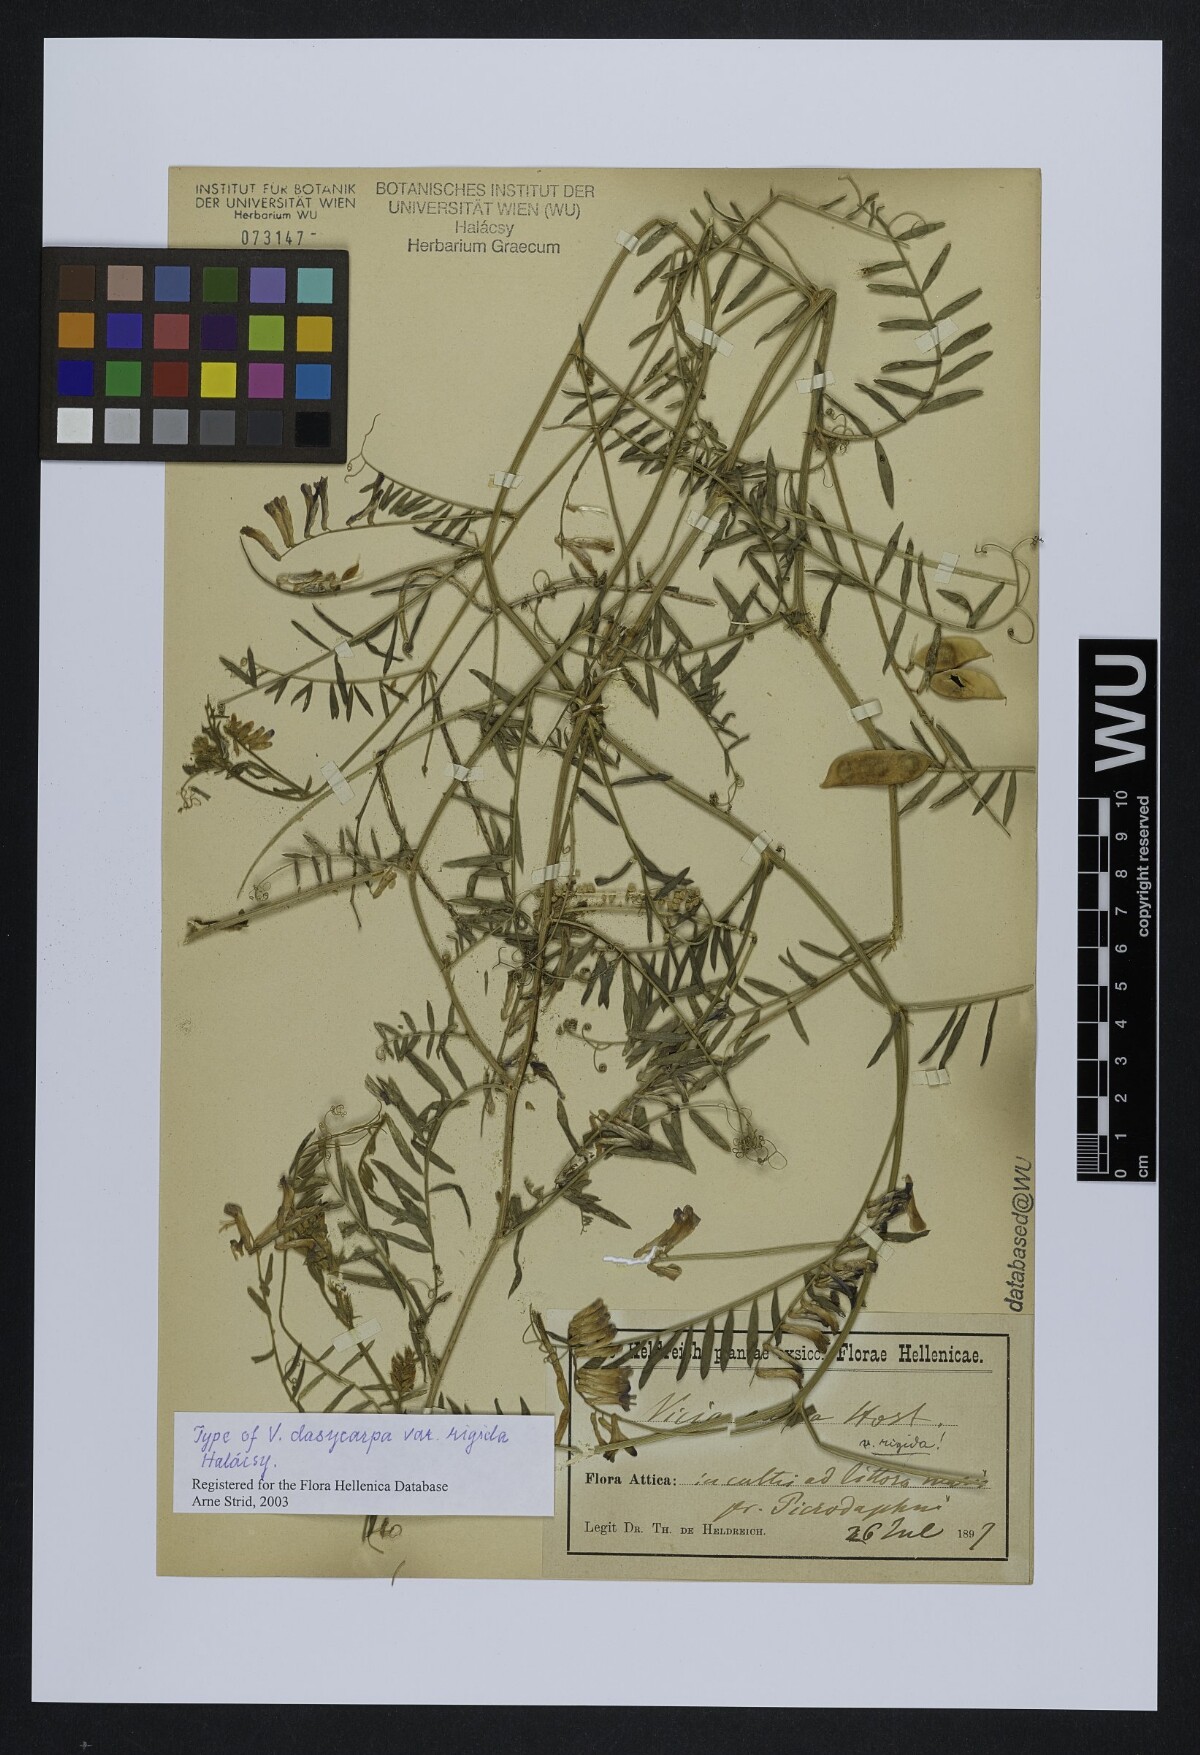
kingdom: Plantae
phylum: Tracheophyta
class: Magnoliopsida
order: Fabales
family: Fabaceae
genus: Vicia
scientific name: Vicia villosa
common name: Fodder vetch
